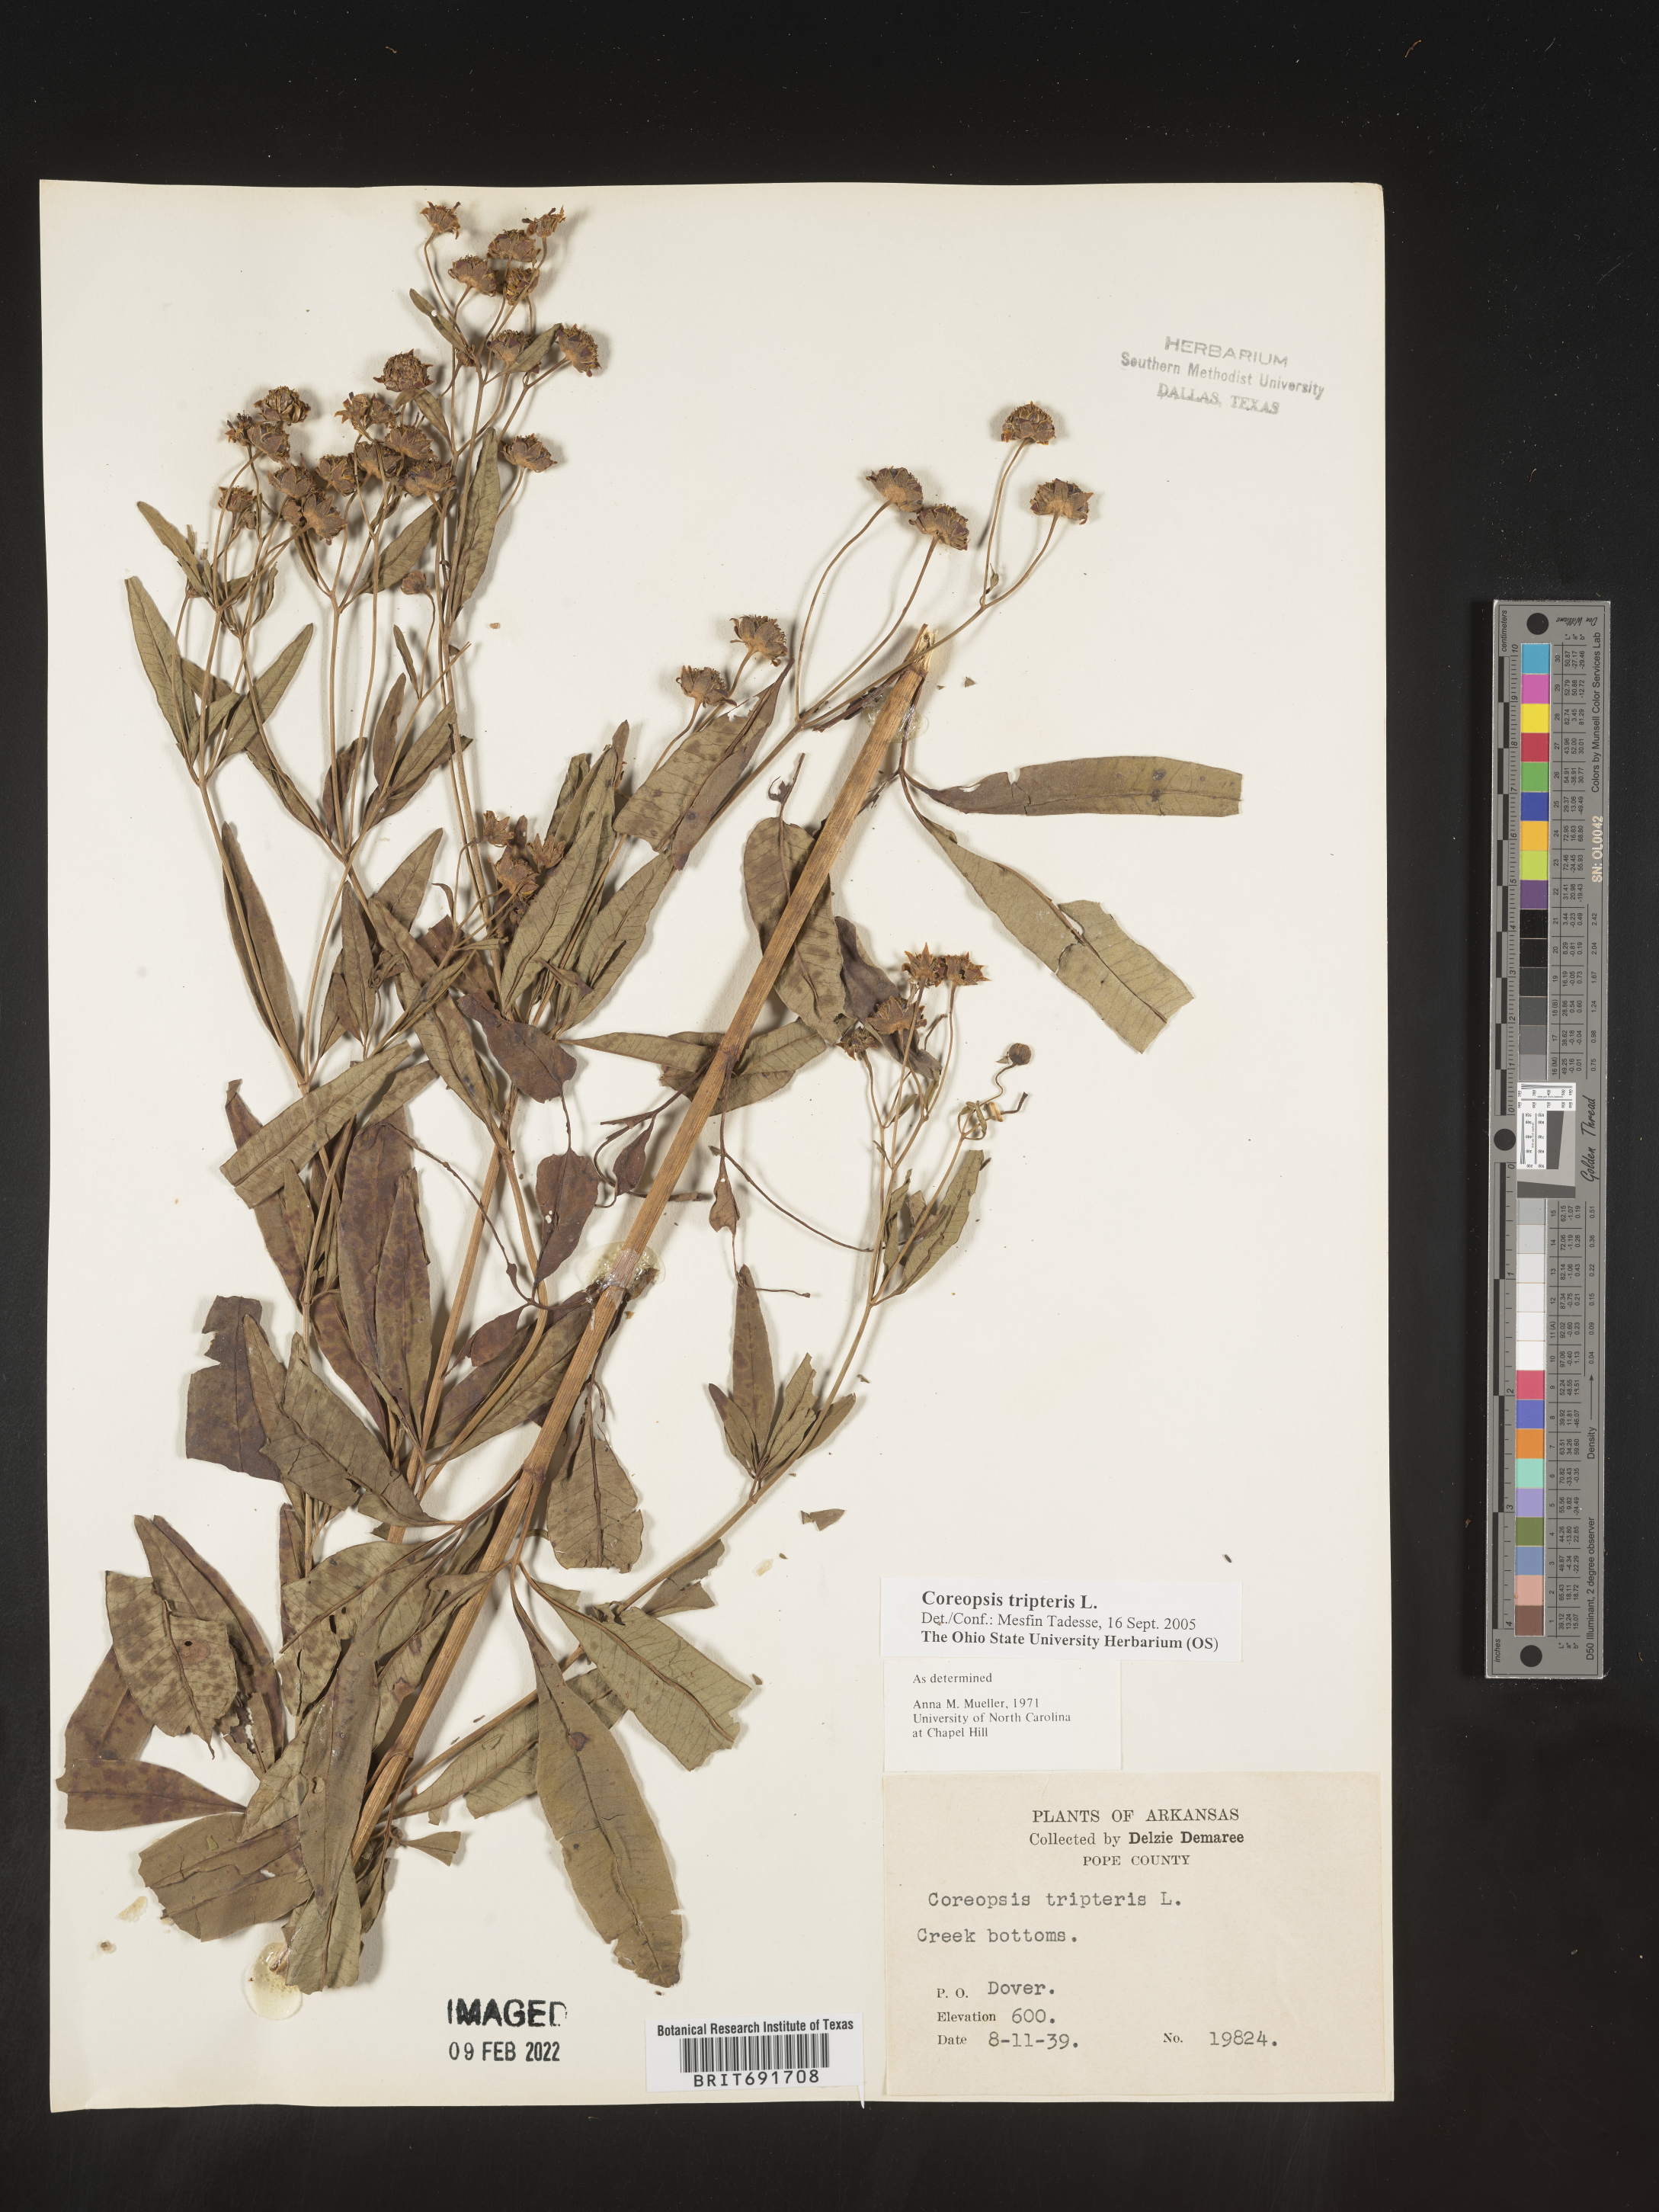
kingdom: Plantae
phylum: Tracheophyta
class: Magnoliopsida
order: Asterales
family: Asteraceae
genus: Coreopsis
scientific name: Coreopsis tripteris
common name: Tall coreopsis
